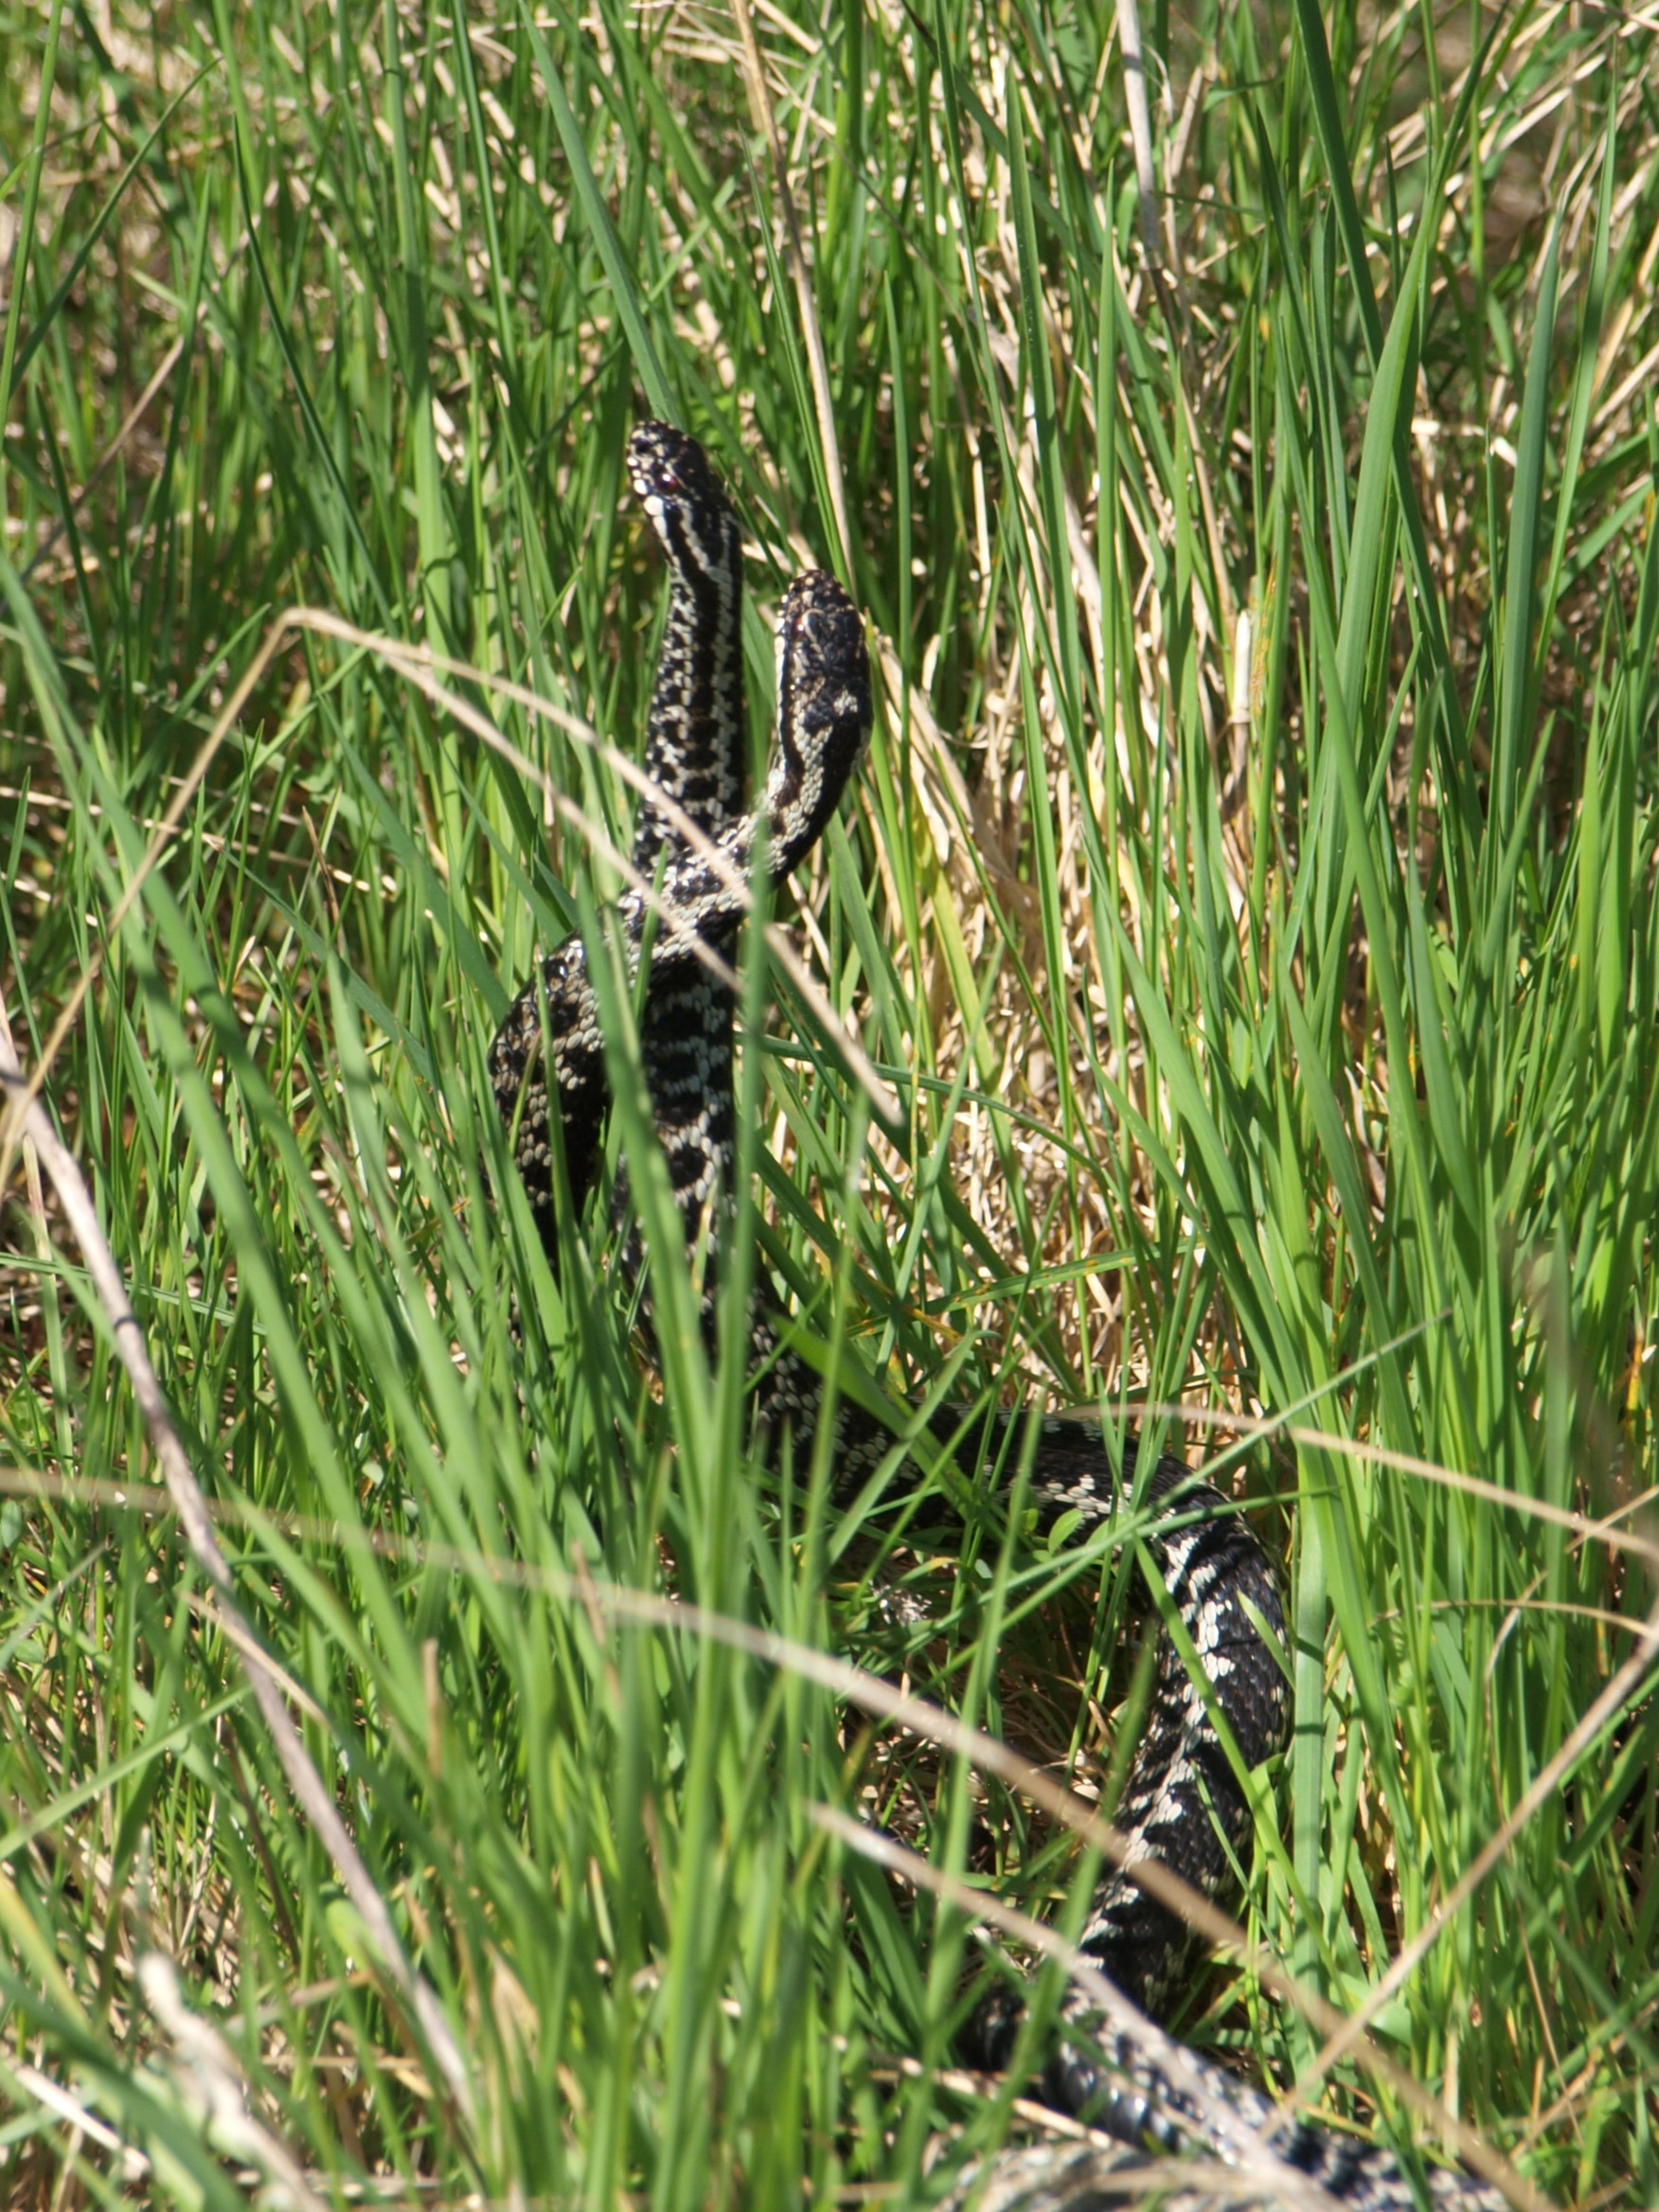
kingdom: Animalia
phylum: Chordata
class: Squamata
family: Viperidae
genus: Vipera
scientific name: Vipera berus
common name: Hugorm
